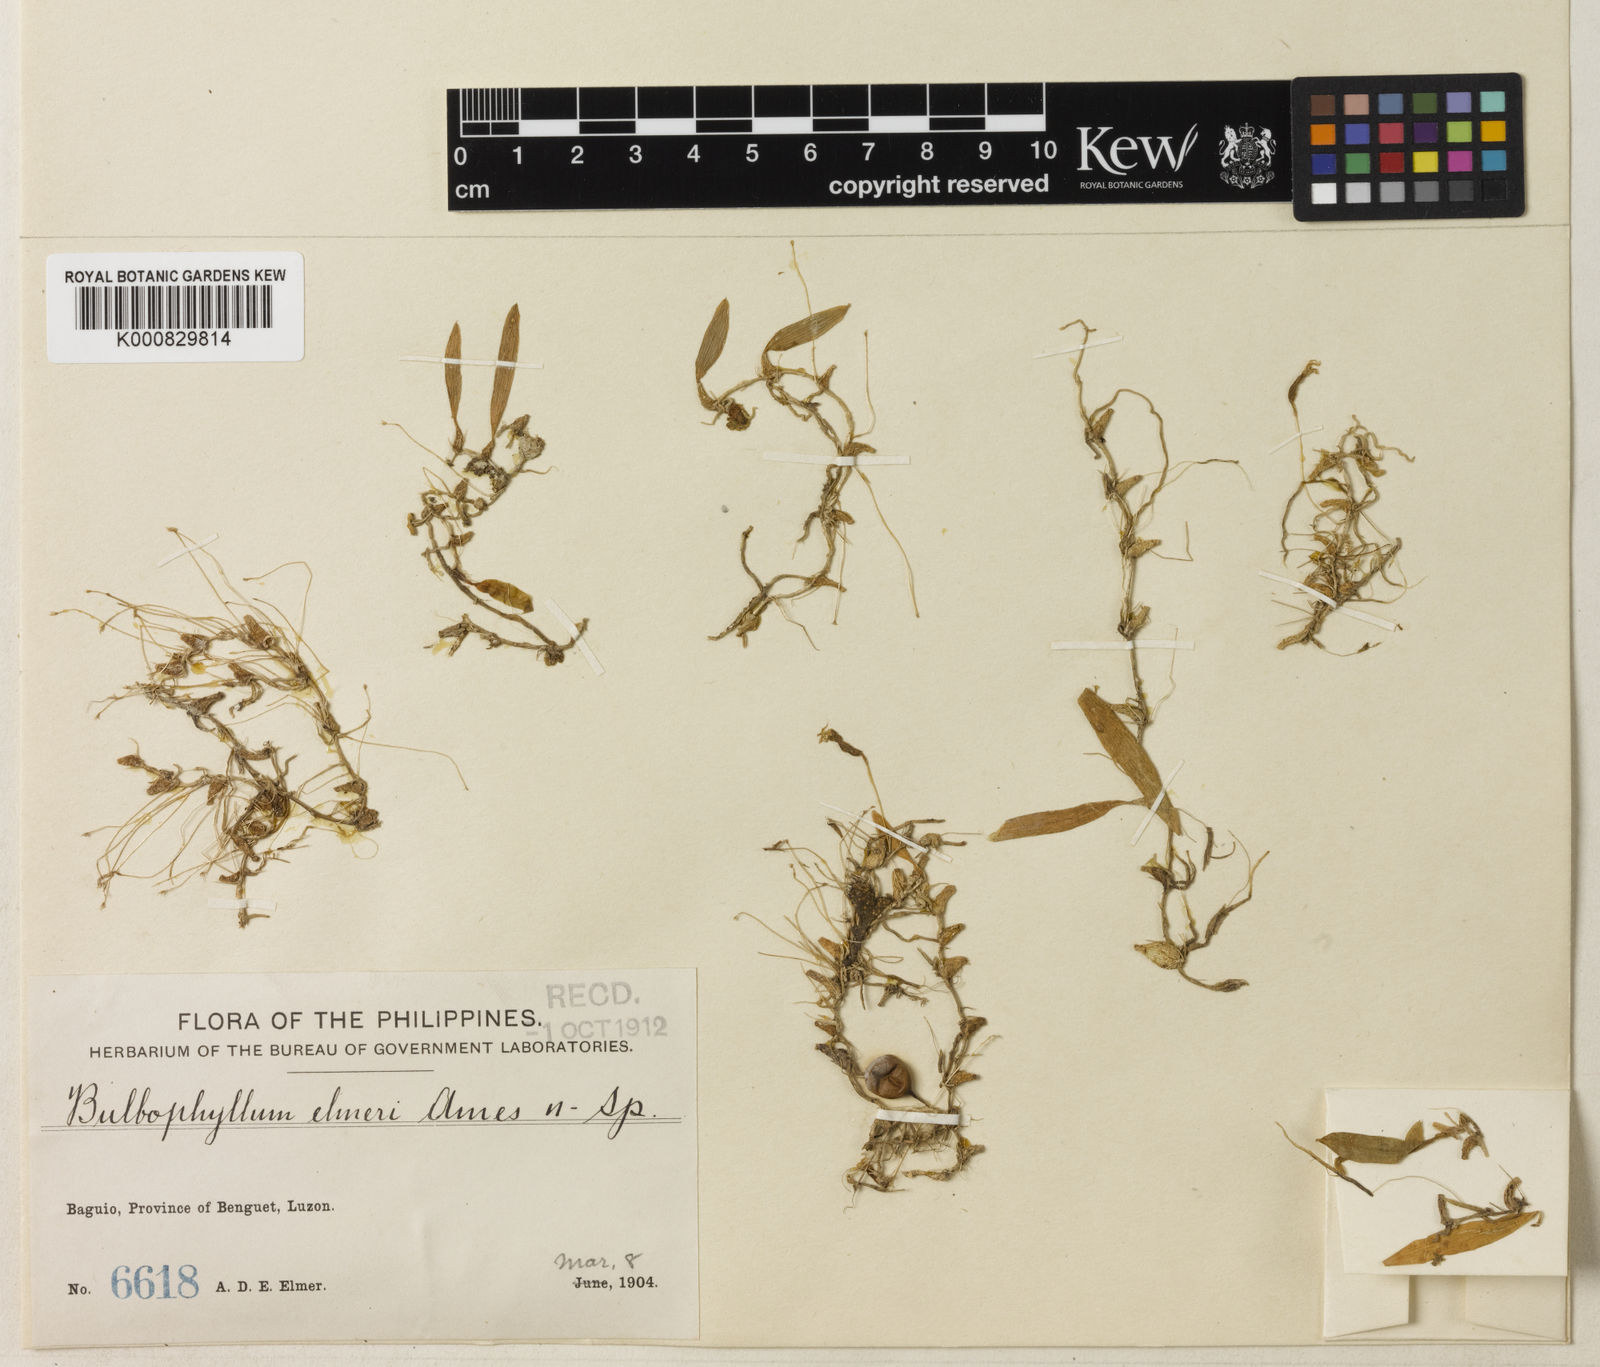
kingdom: Plantae
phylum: Tracheophyta
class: Liliopsida
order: Asparagales
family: Orchidaceae
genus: Bulbophyllum
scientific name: Bulbophyllum elmeri
